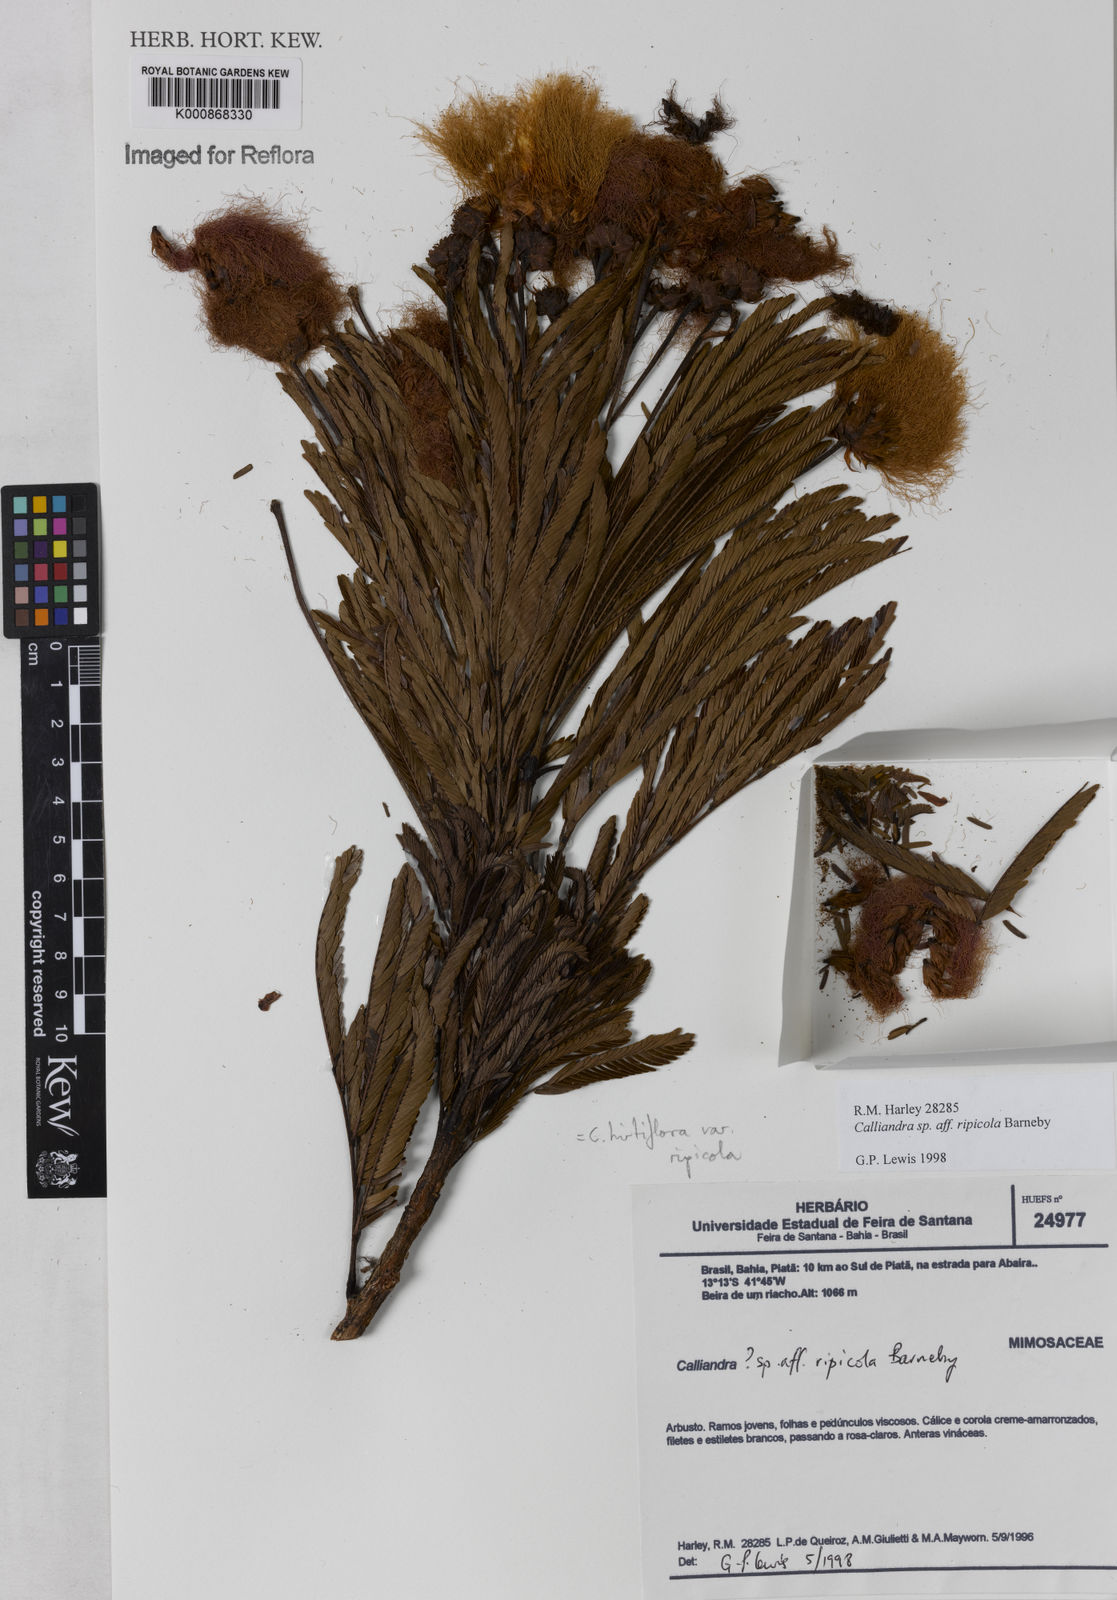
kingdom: Plantae
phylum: Tracheophyta
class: Magnoliopsida
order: Fabales
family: Fabaceae
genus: Calliandra
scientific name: Calliandra hirtiflora
